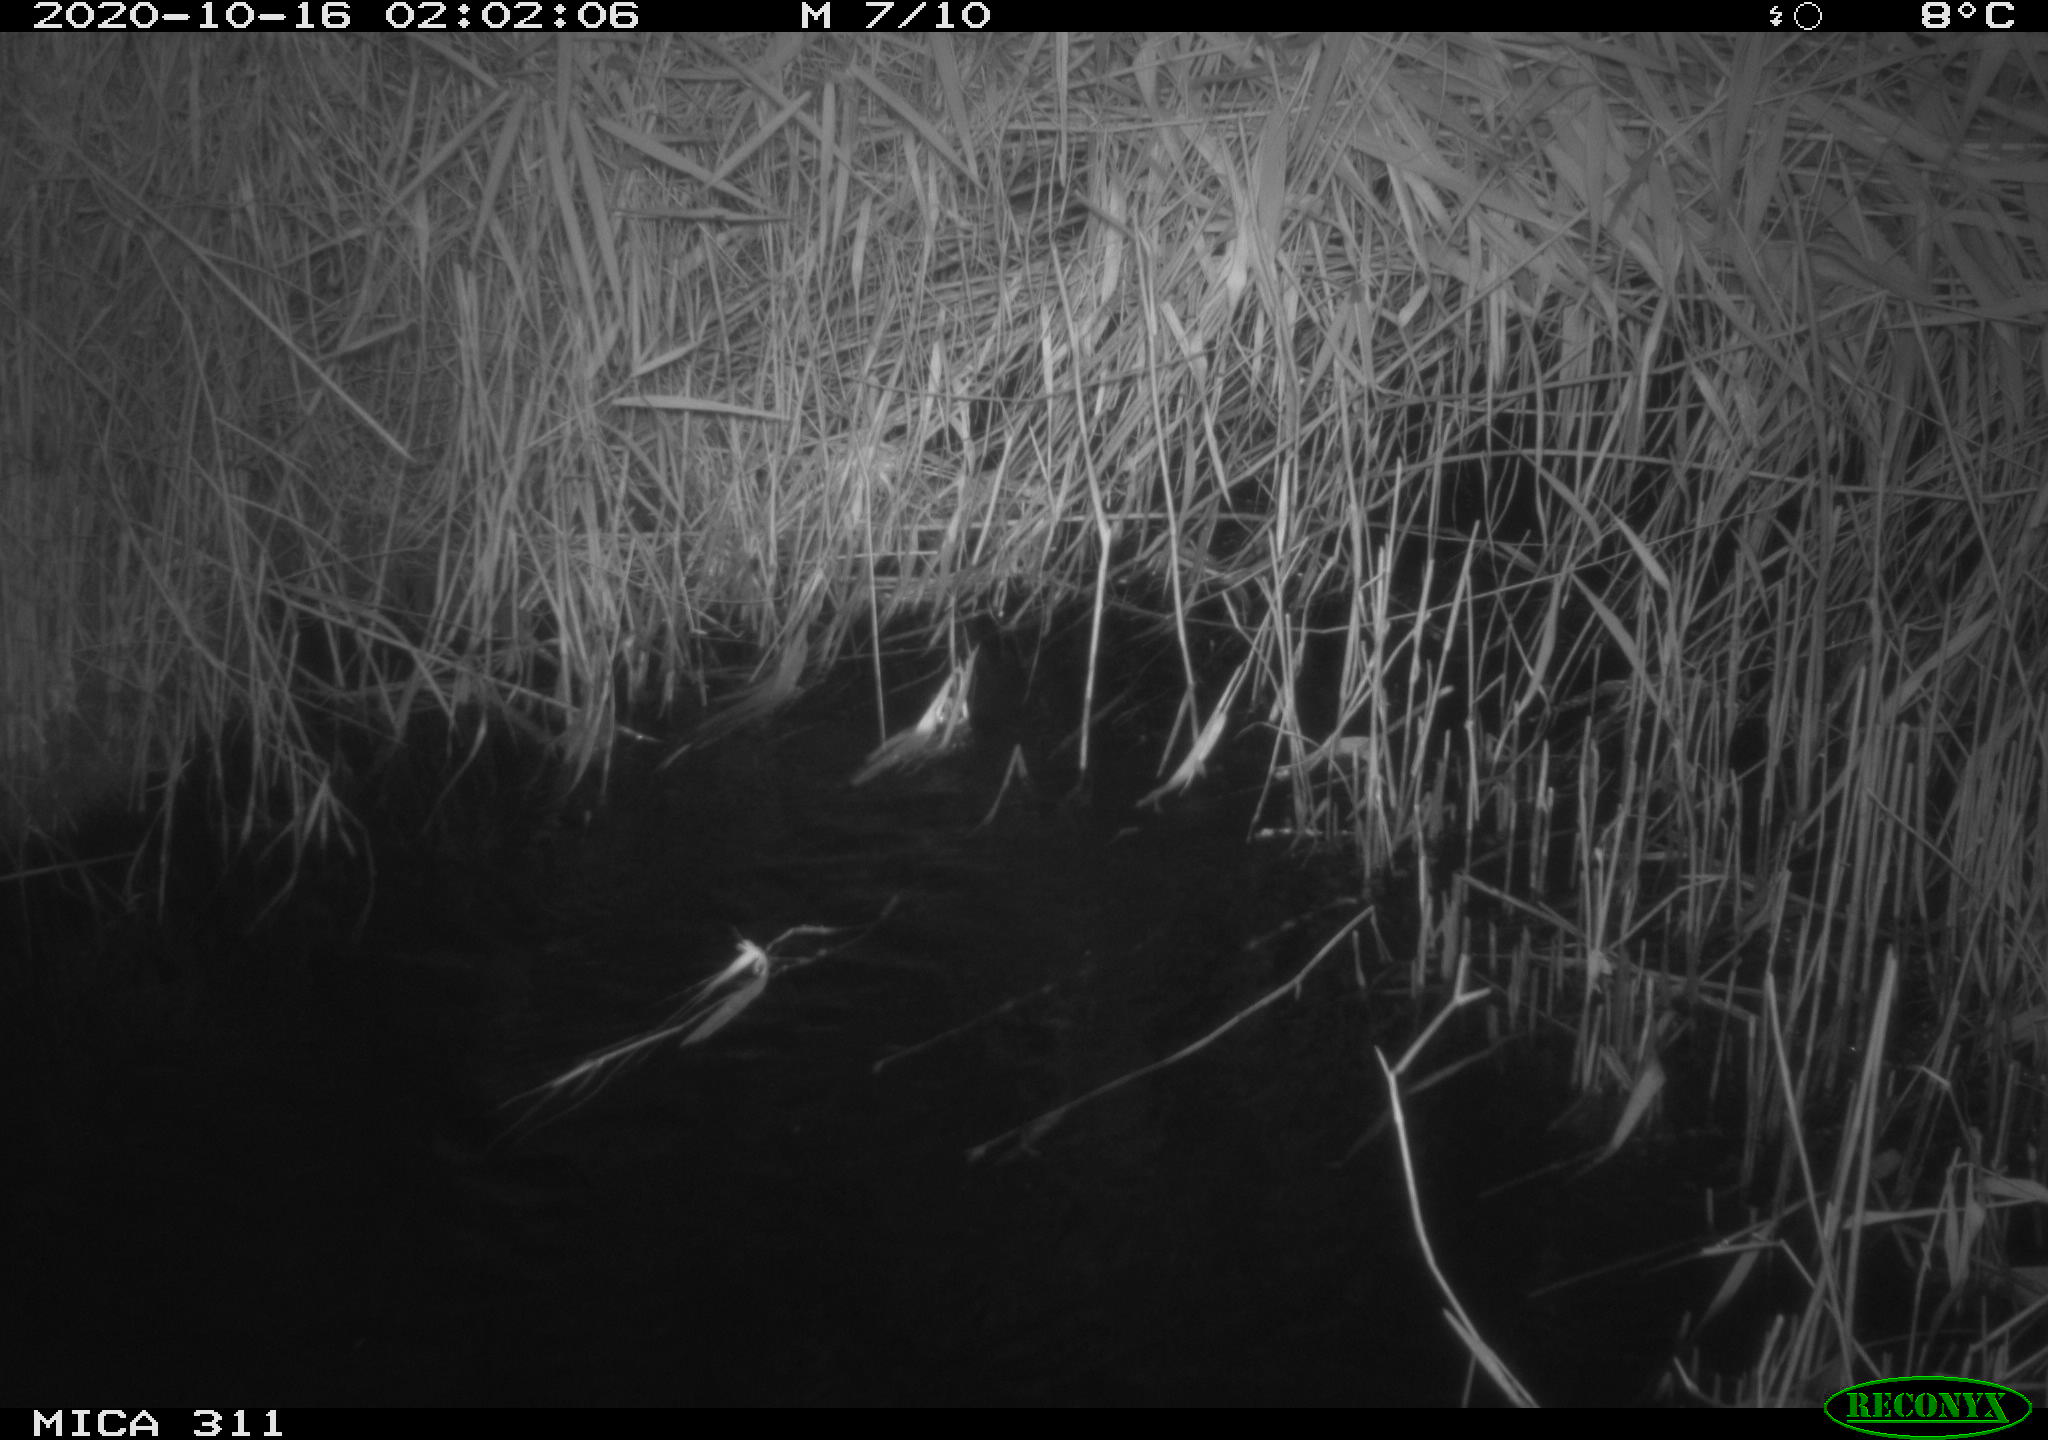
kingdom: Animalia
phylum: Chordata
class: Mammalia
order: Rodentia
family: Muridae
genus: Rattus
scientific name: Rattus norvegicus
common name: Brown rat
